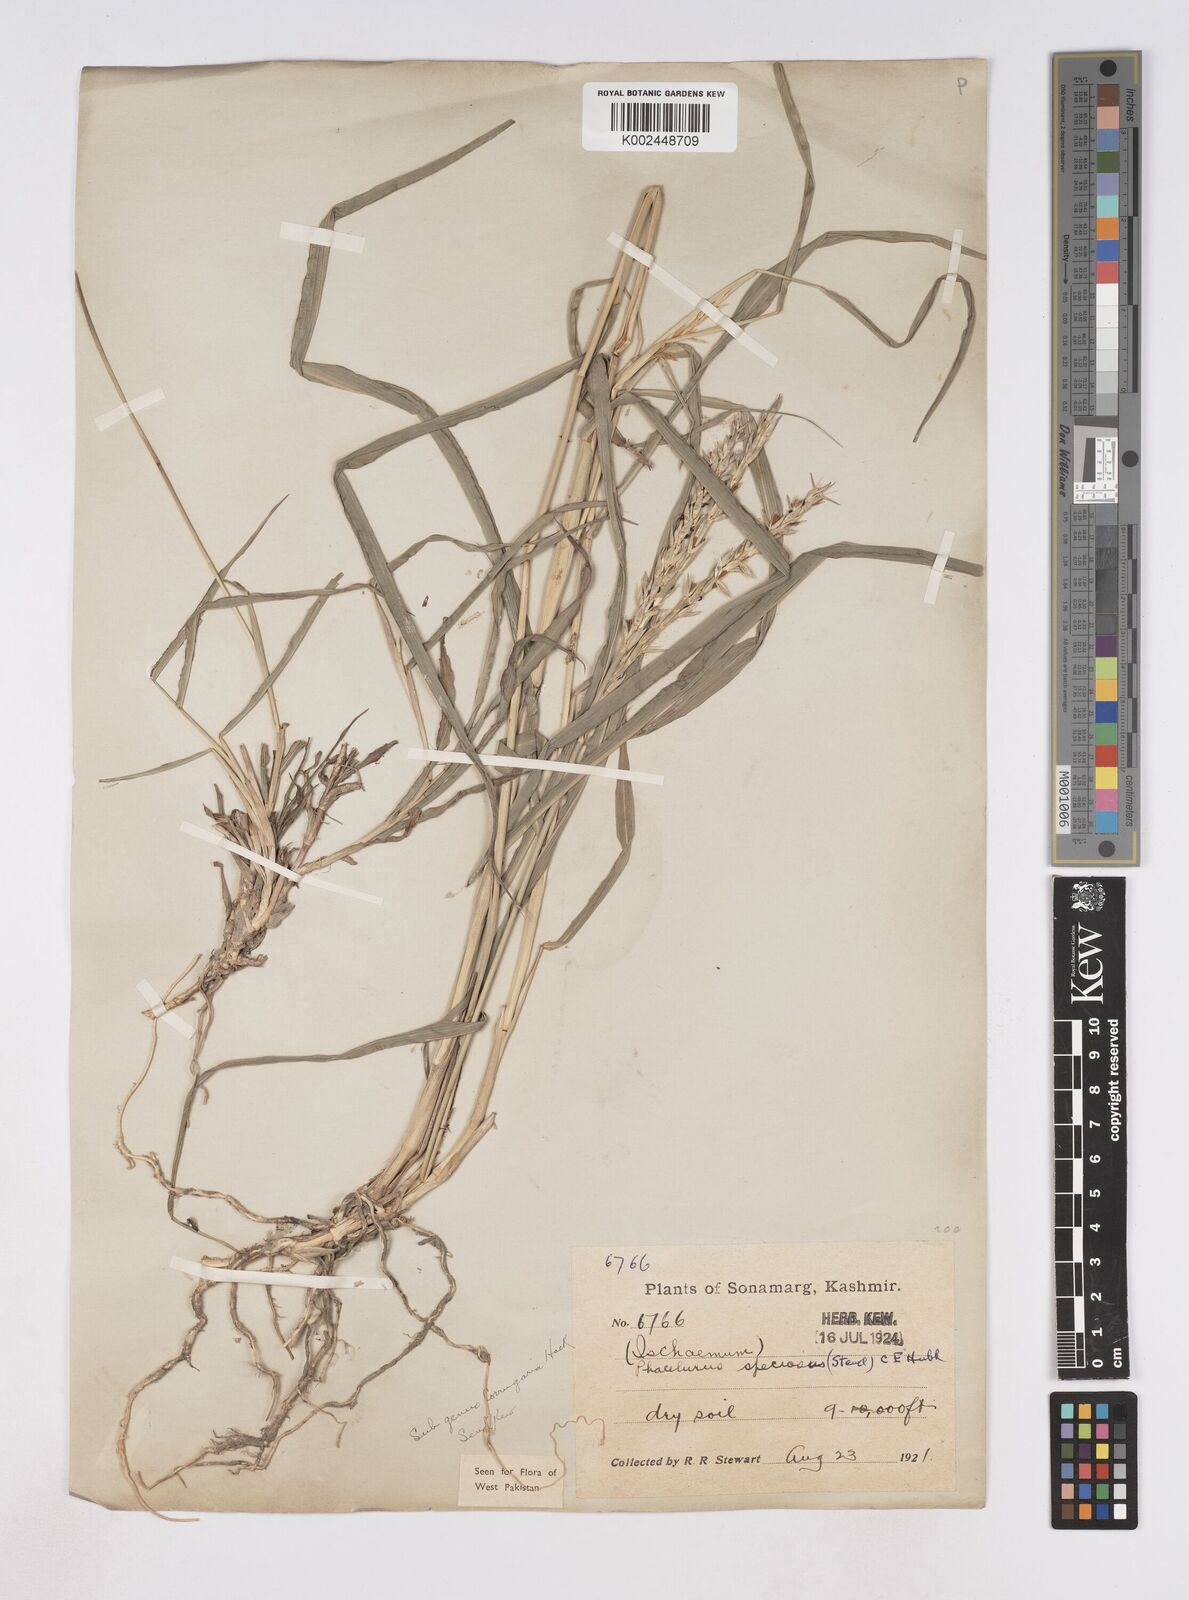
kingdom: Plantae
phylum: Tracheophyta
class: Liliopsida
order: Poales
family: Poaceae
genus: Phacelurus
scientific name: Phacelurus speciosus
